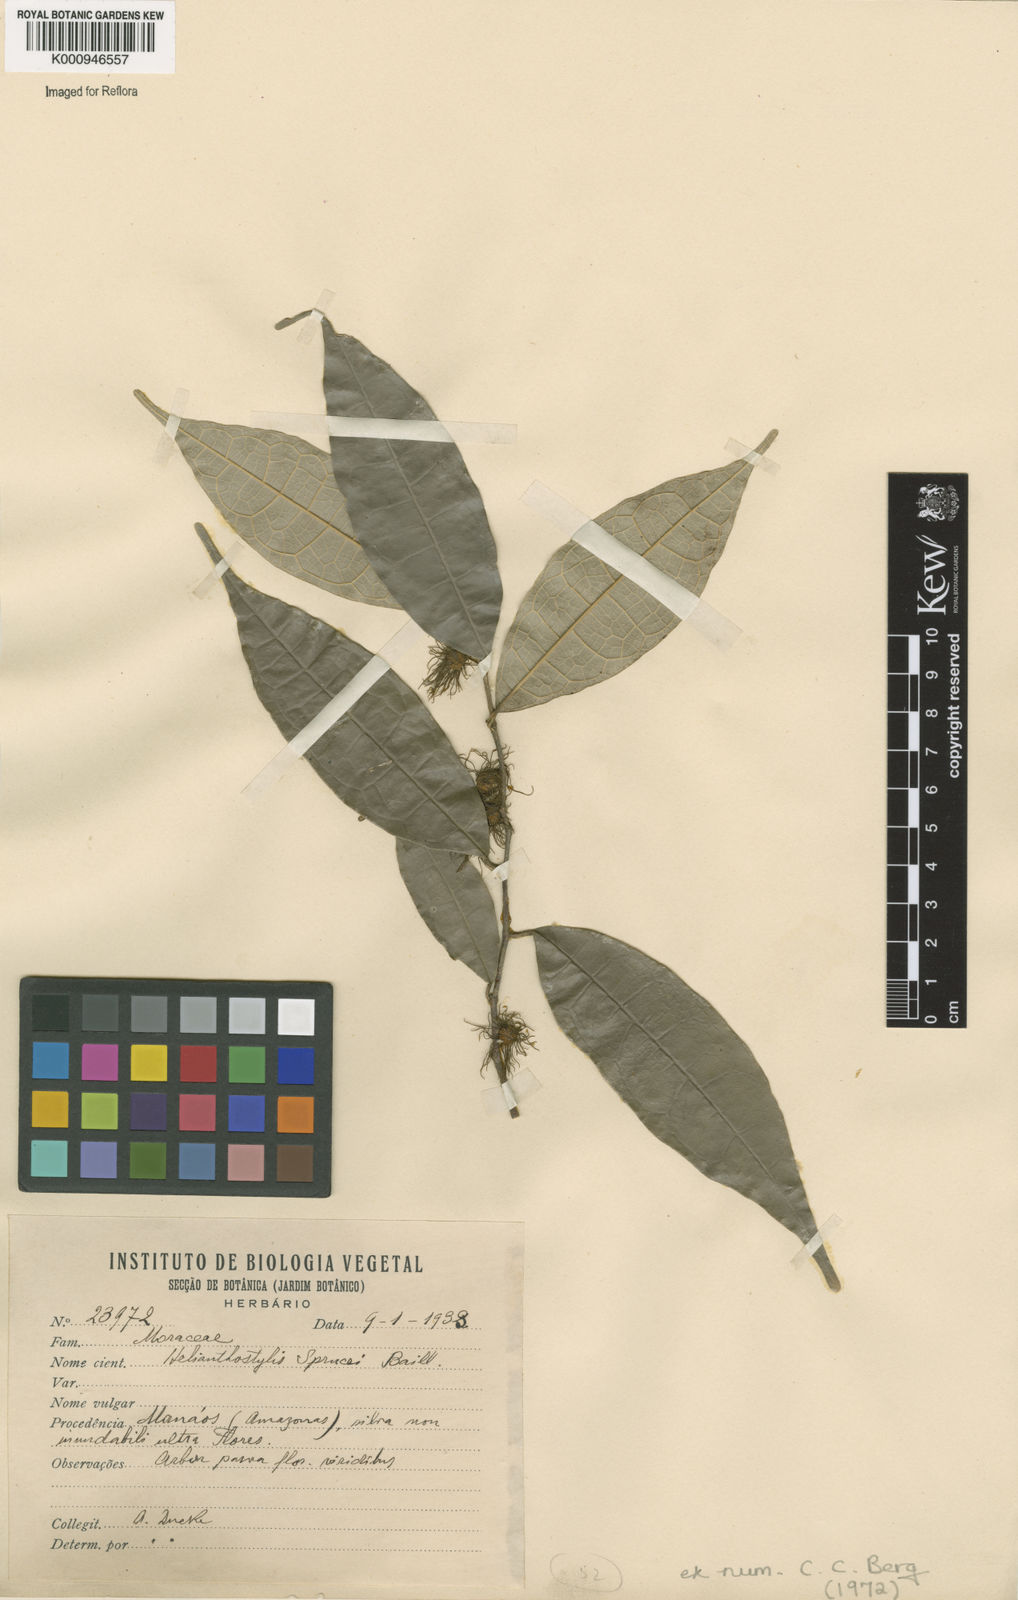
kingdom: Plantae
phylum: Tracheophyta
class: Magnoliopsida
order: Rosales
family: Moraceae
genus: Brosimum
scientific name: Brosimum sprucei
